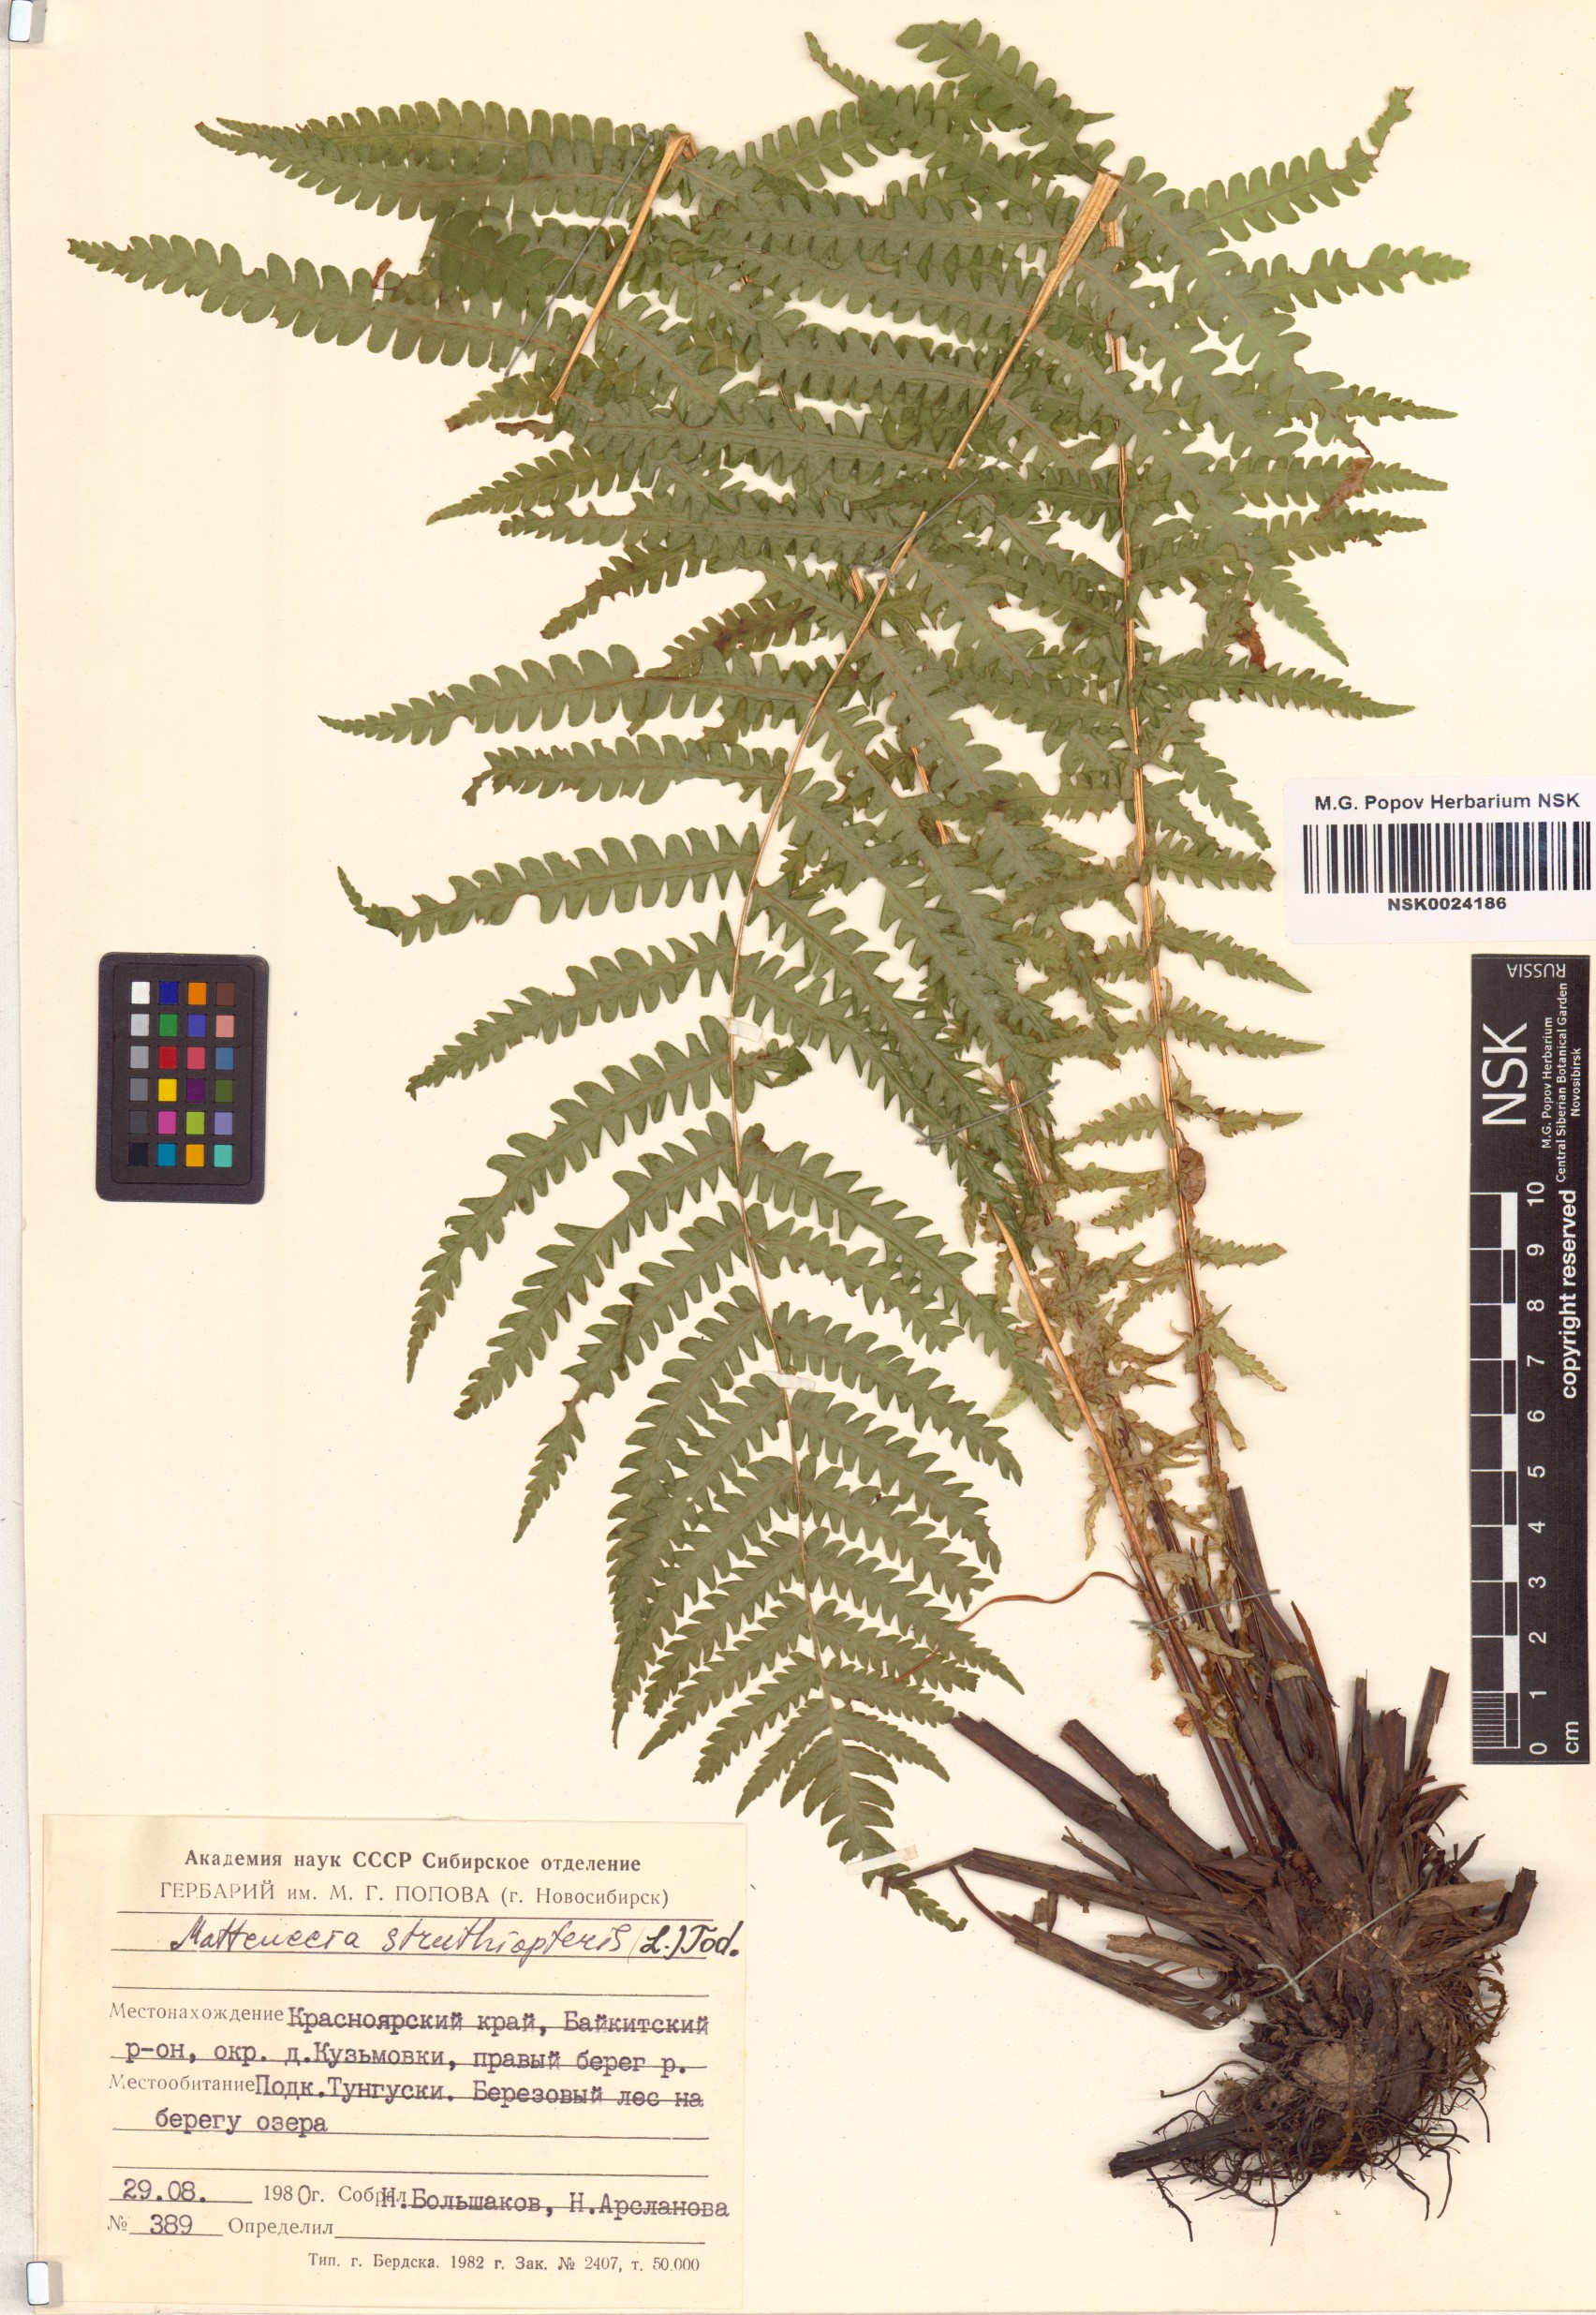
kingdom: Plantae
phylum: Tracheophyta
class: Polypodiopsida
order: Polypodiales
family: Onocleaceae
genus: Matteuccia
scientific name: Matteuccia struthiopteris
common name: Ostrich fern
